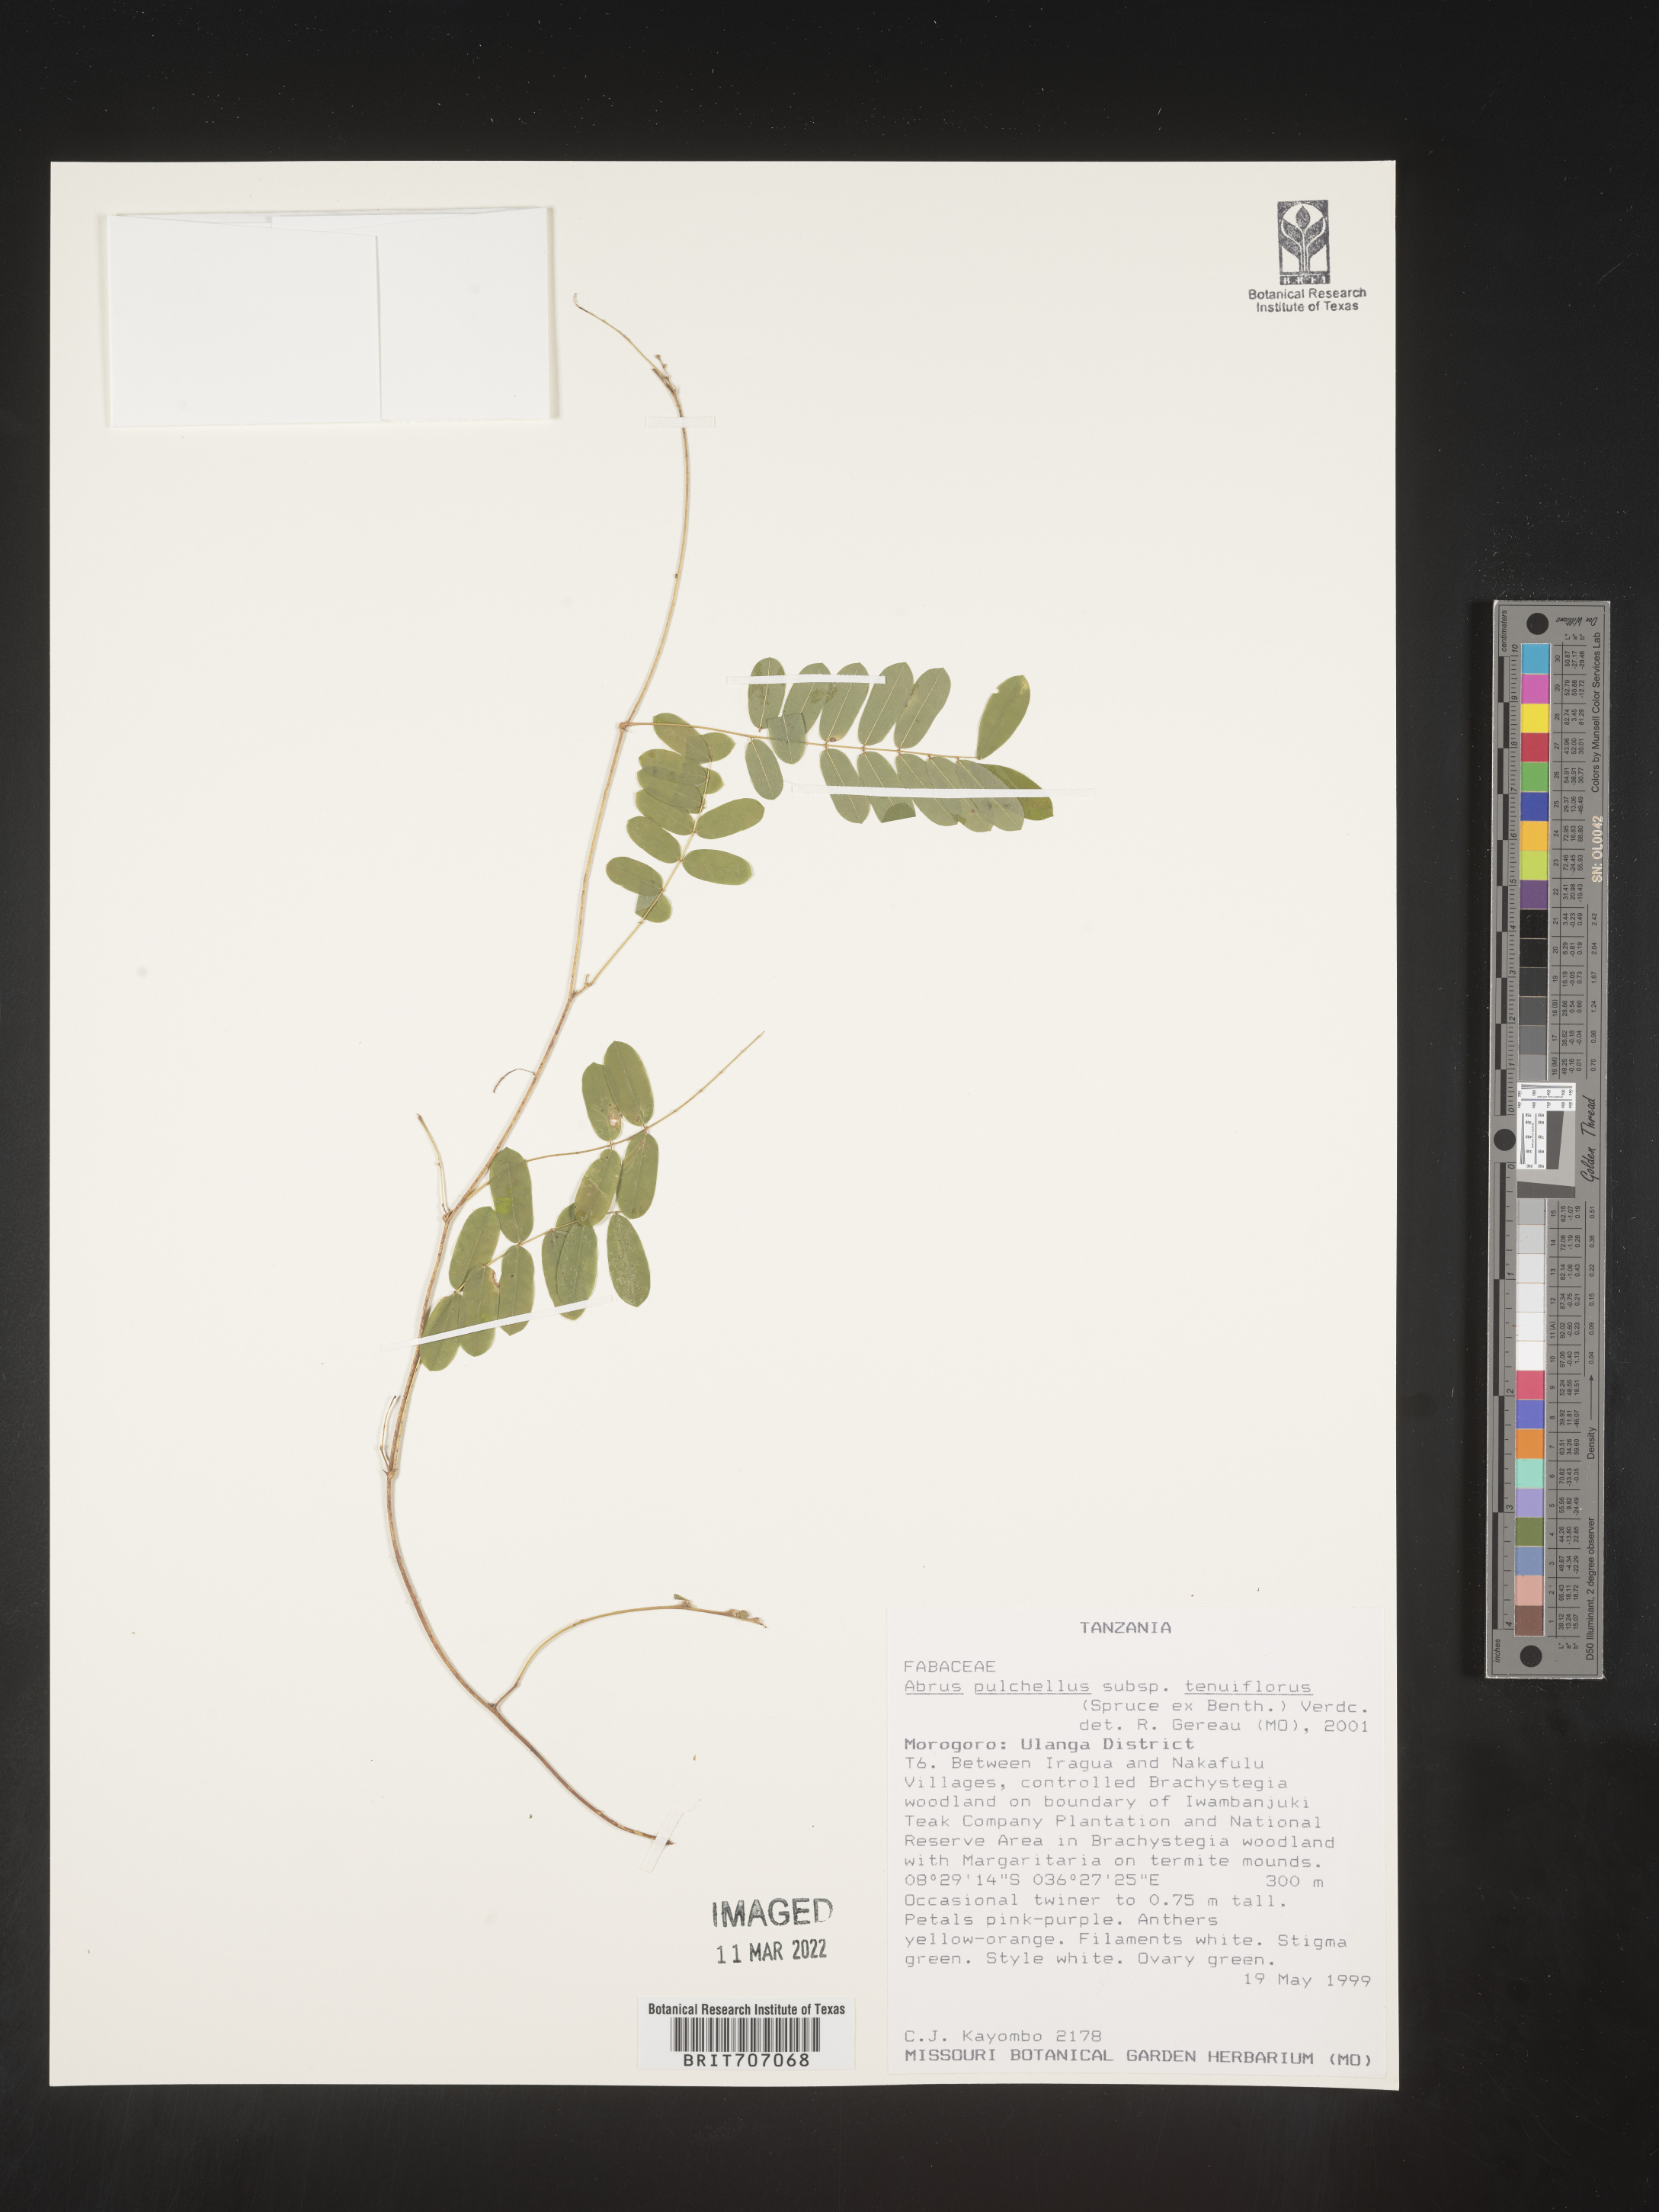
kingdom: Plantae
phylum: Tracheophyta
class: Magnoliopsida
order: Fabales
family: Fabaceae
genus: Abrus
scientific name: Abrus
